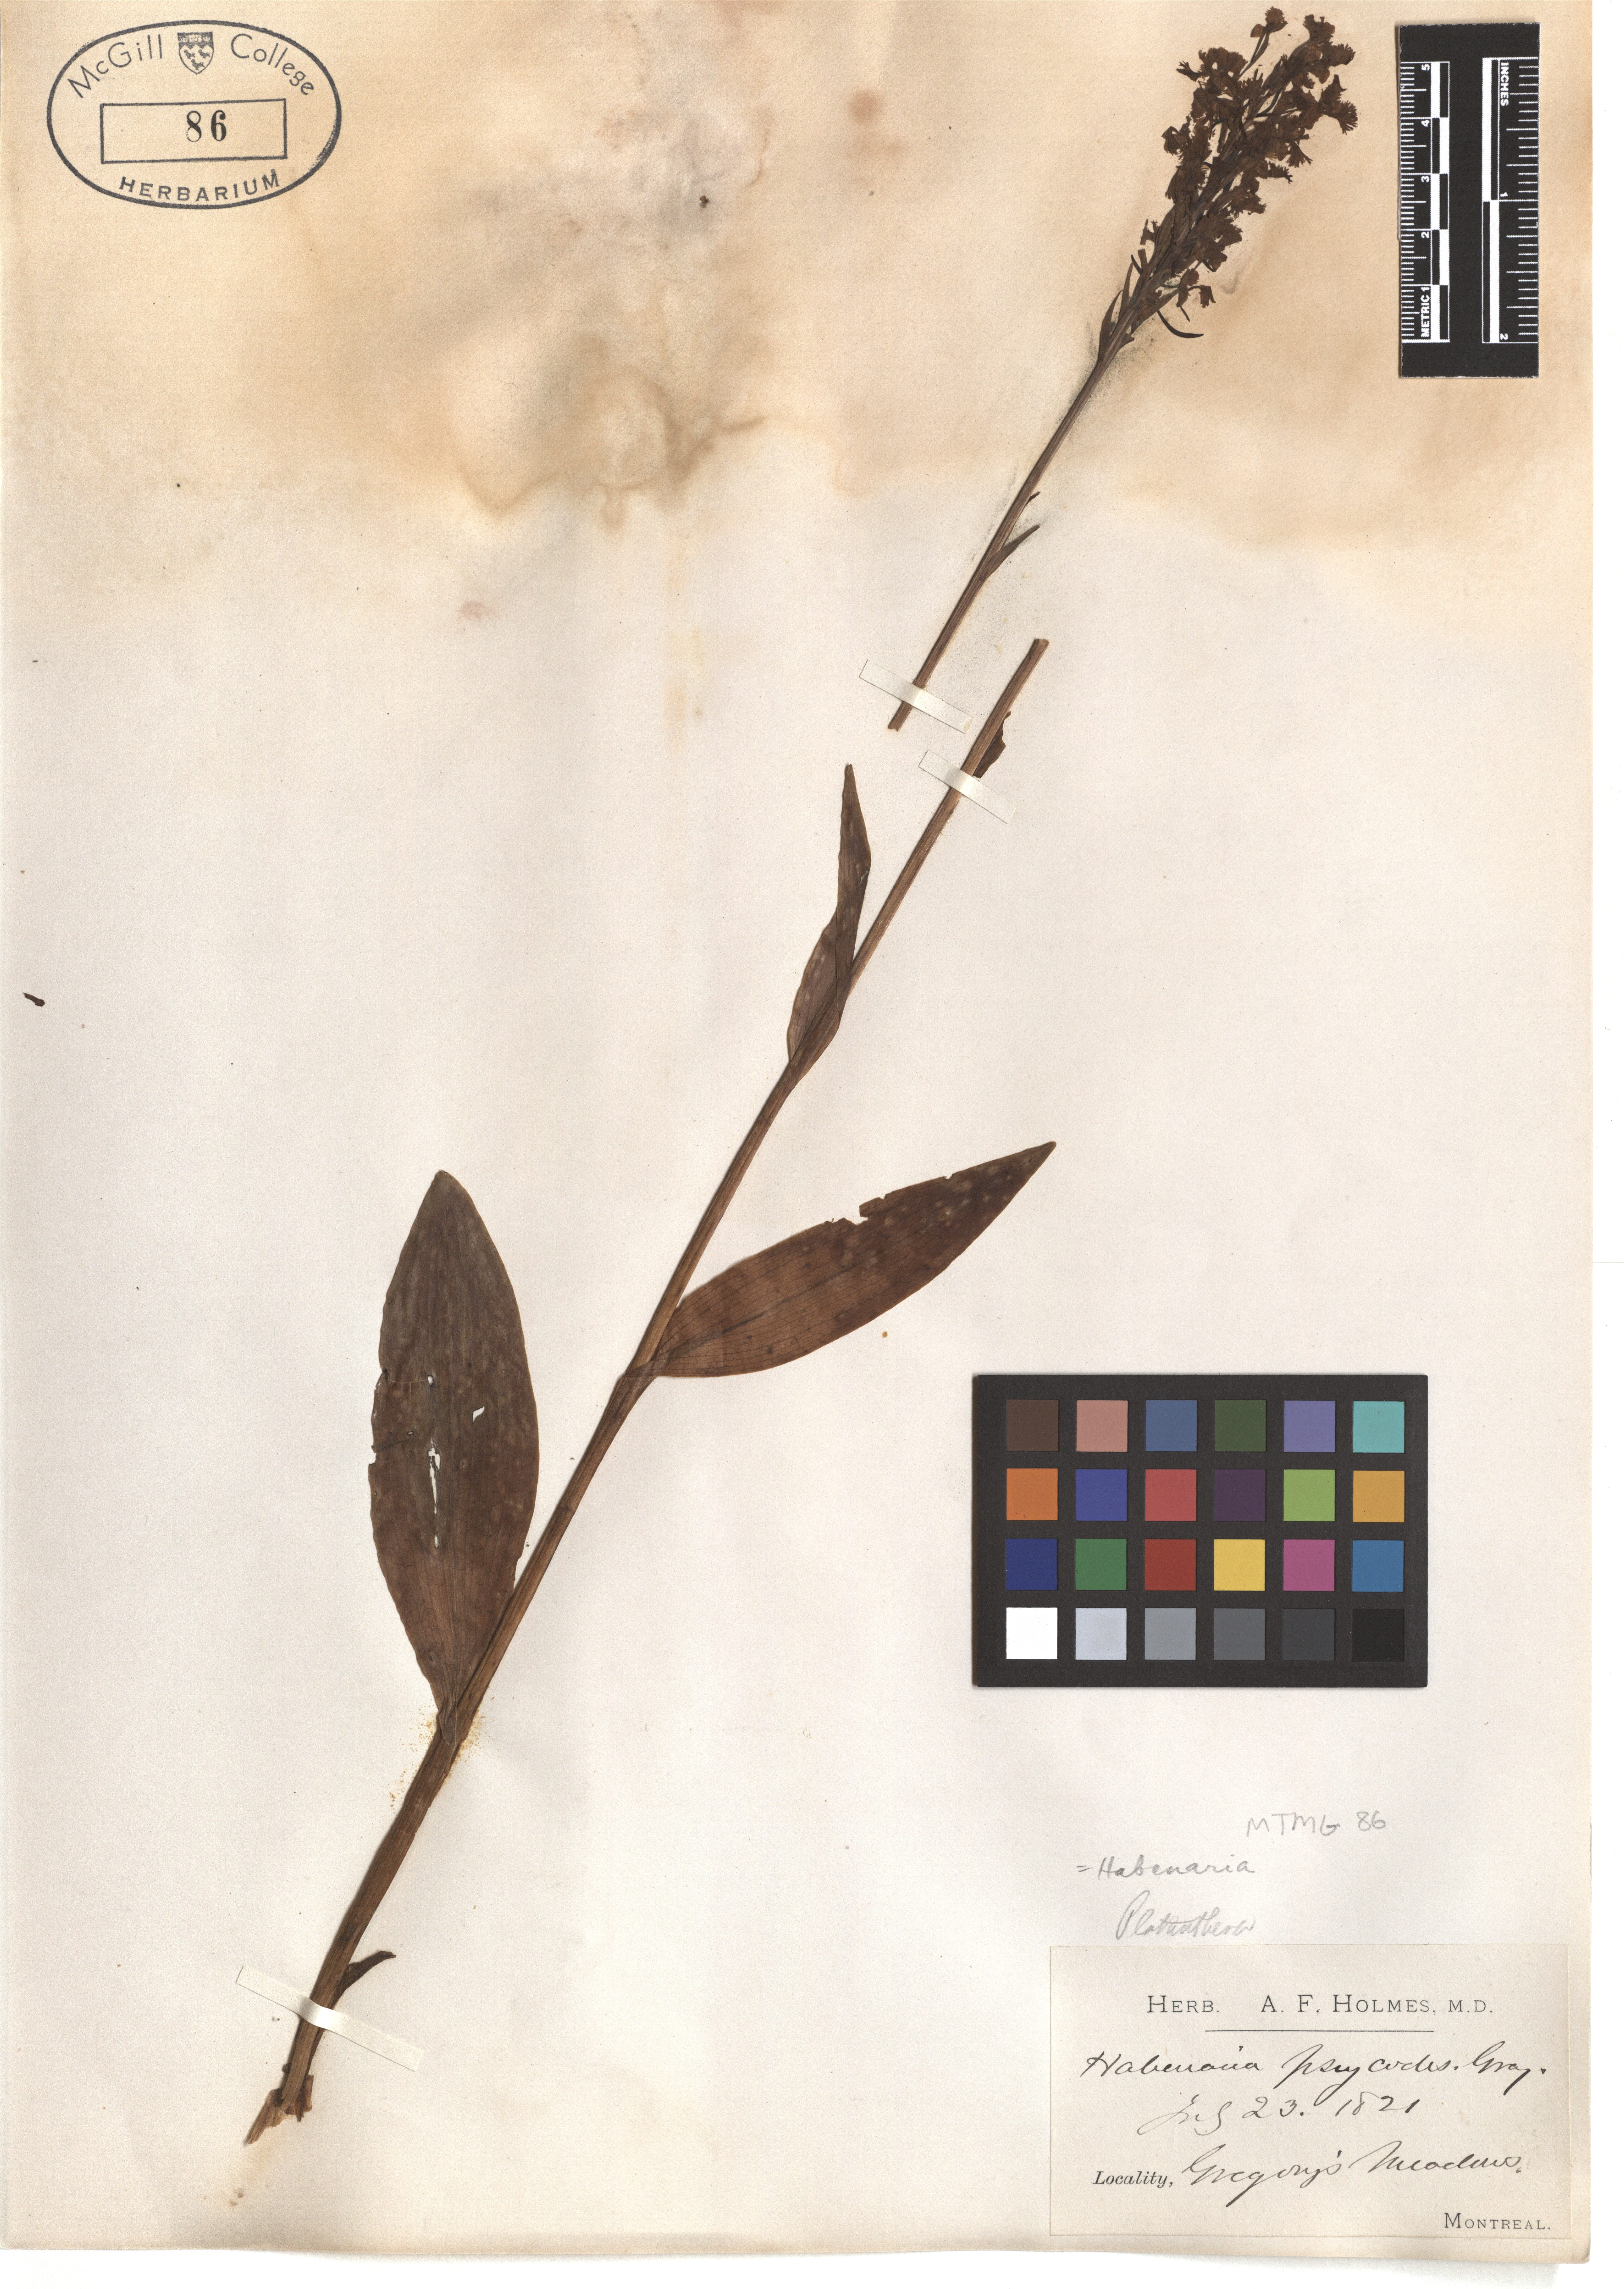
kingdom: Plantae
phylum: Tracheophyta
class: Liliopsida
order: Asparagales
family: Orchidaceae
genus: Platanthera
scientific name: Platanthera psycodes
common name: Lesser purple fringed orchid
